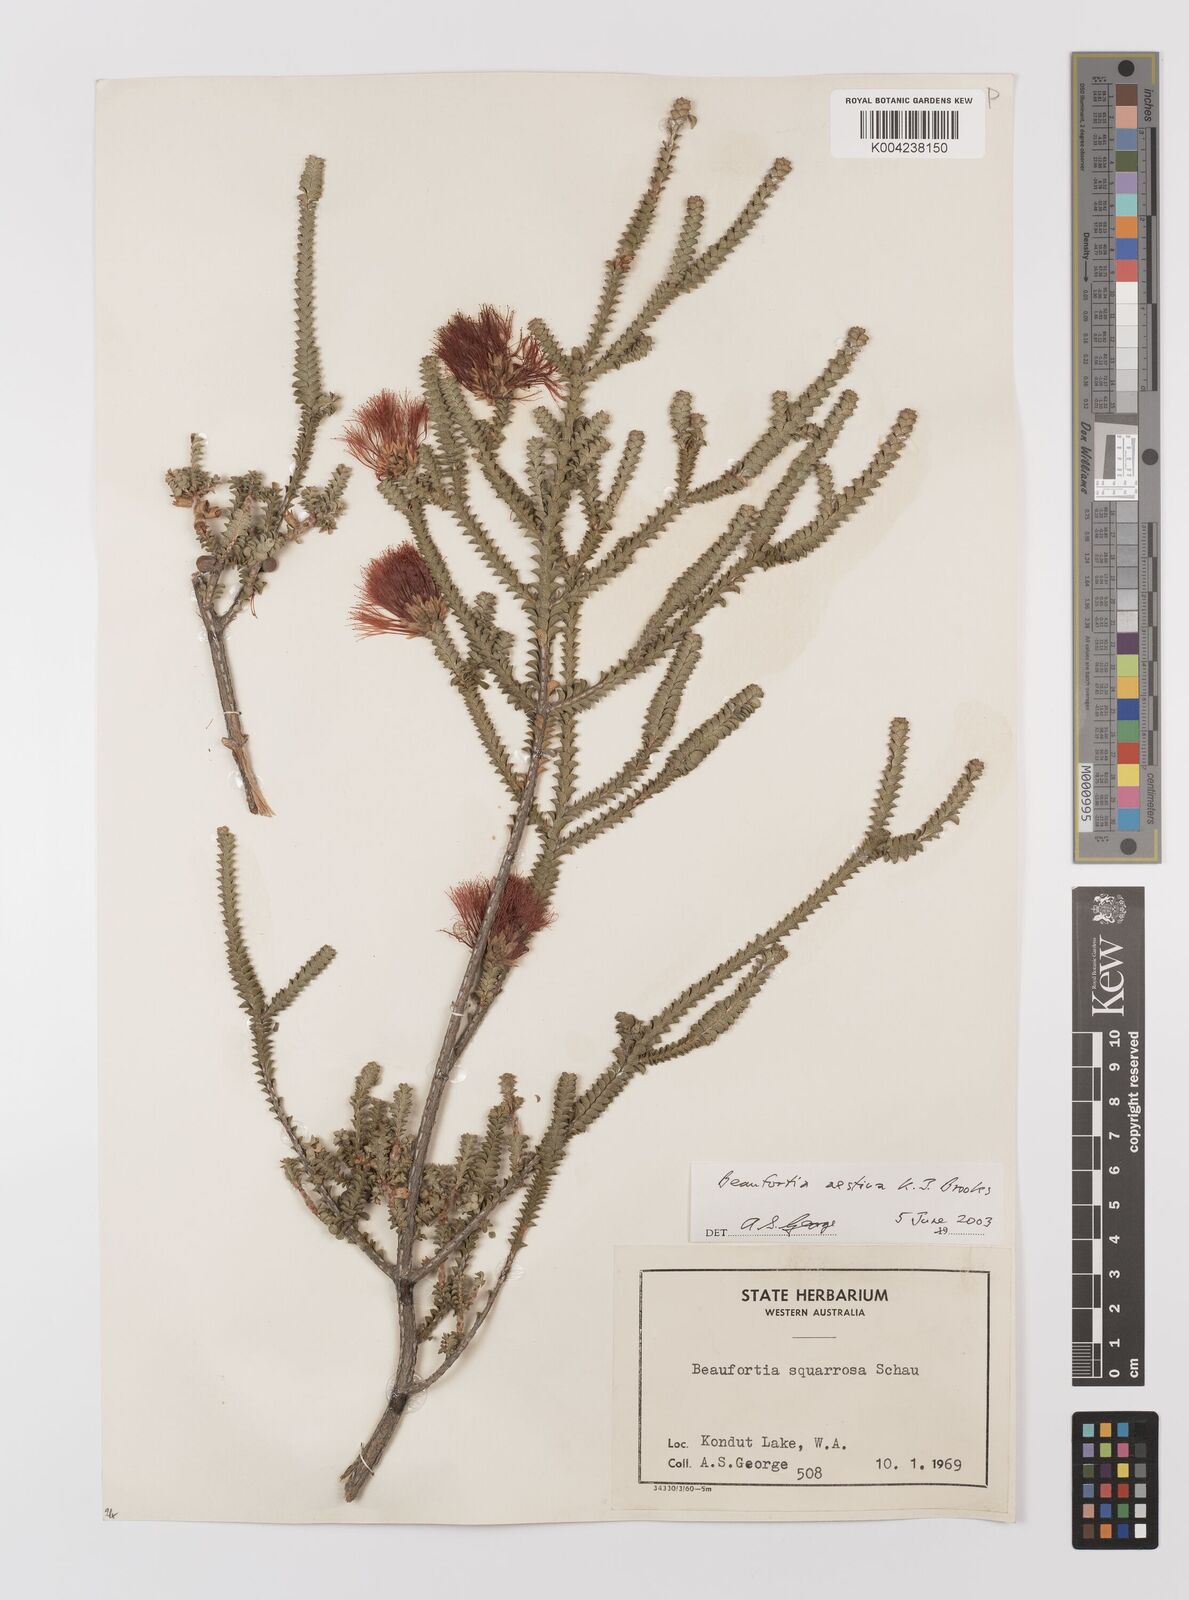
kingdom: Plantae
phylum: Tracheophyta
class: Magnoliopsida
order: Myrtales
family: Myrtaceae
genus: Melaleuca
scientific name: Melaleuca aestiva
